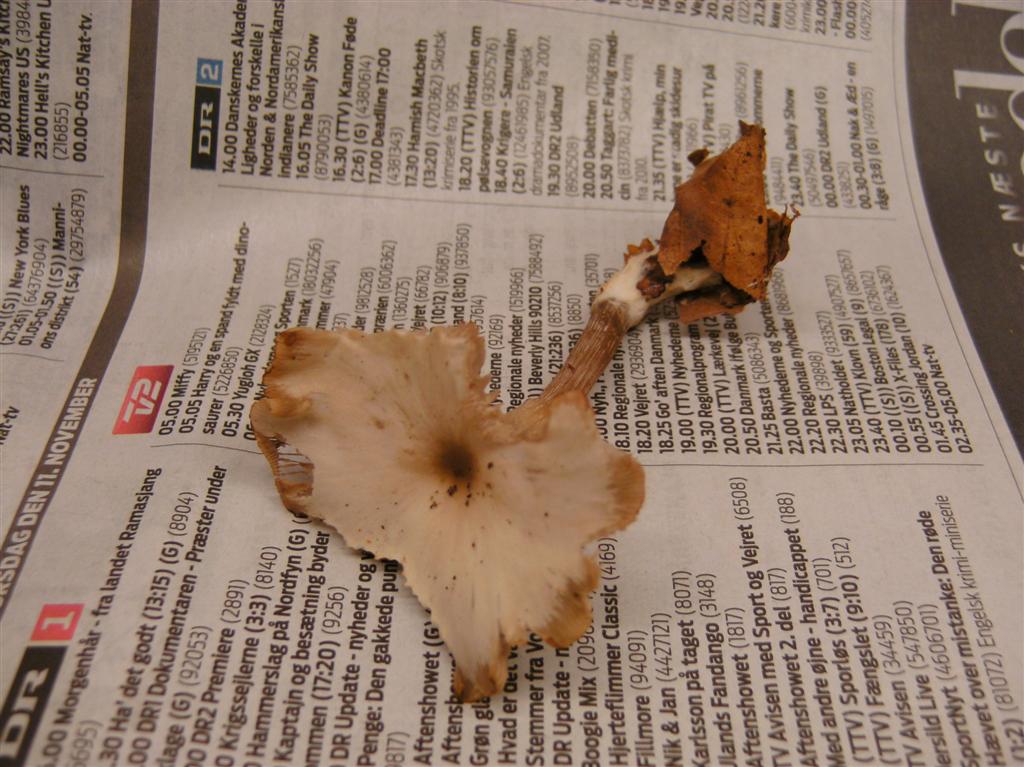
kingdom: Fungi
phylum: Basidiomycota
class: Agaricomycetes
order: Agaricales
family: Tricholomataceae
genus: Clitocybe
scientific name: Clitocybe metachroa
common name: grå tragthat
